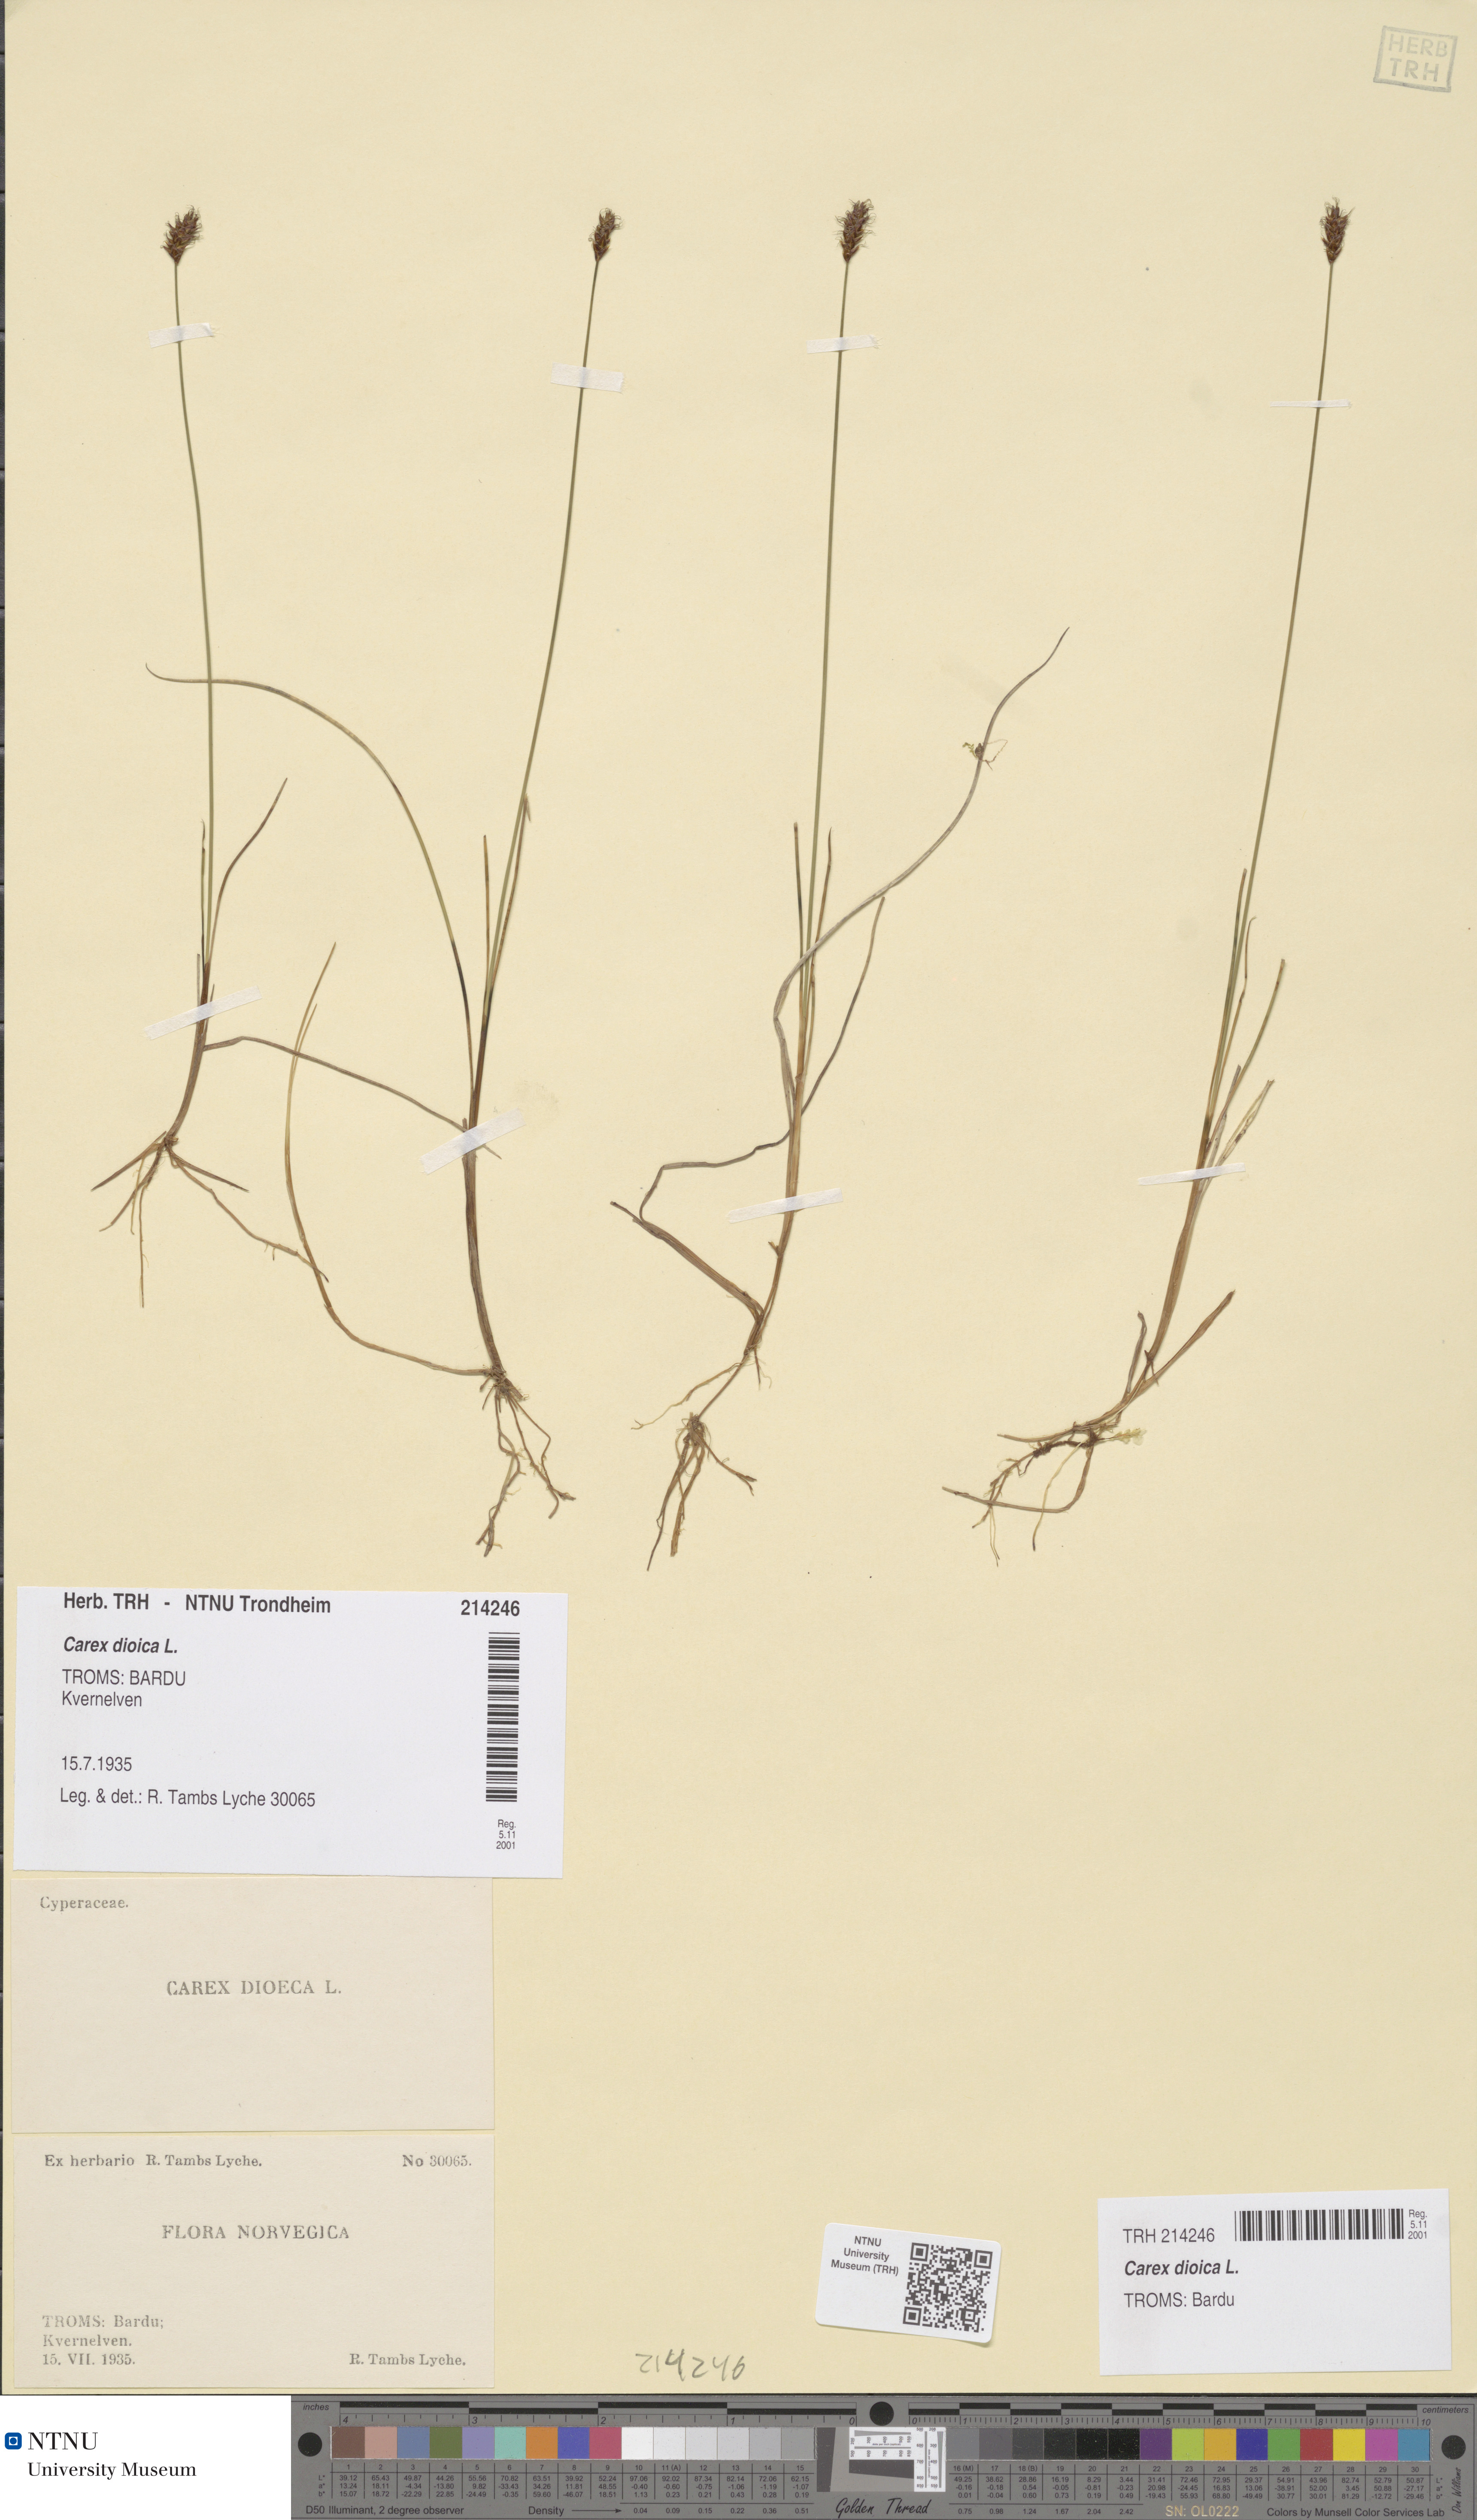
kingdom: Plantae
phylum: Tracheophyta
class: Liliopsida
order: Poales
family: Cyperaceae
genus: Carex
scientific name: Carex dioica
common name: Dioecious sedge
